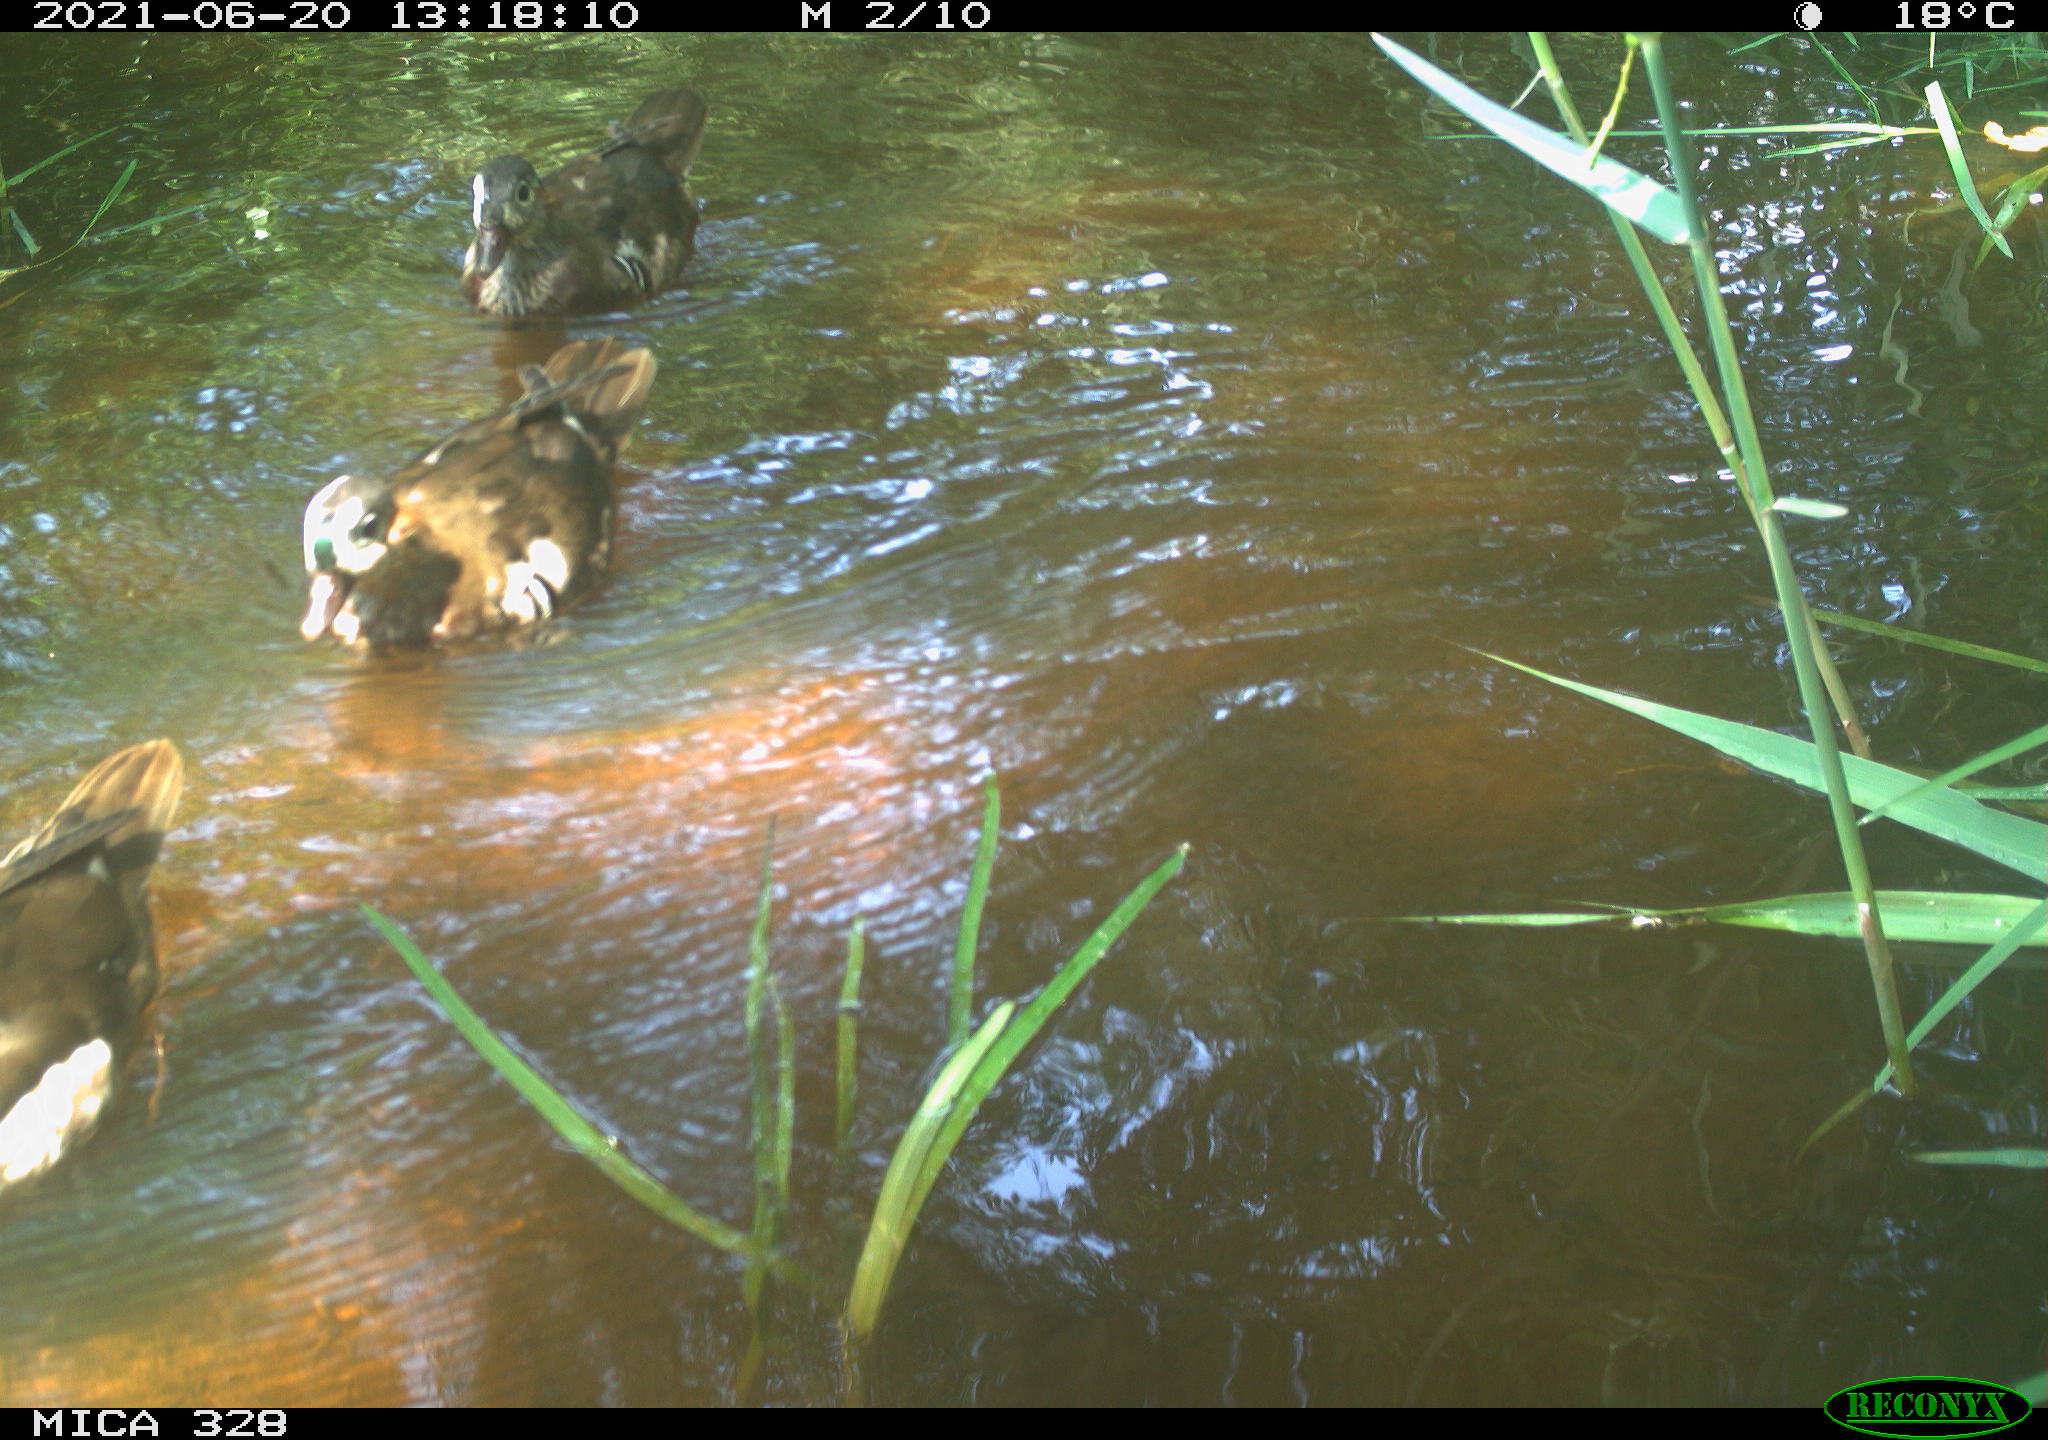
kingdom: Animalia
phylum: Chordata
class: Aves
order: Anseriformes
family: Anatidae
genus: Aix
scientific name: Aix galericulata
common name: Mandarin duck
